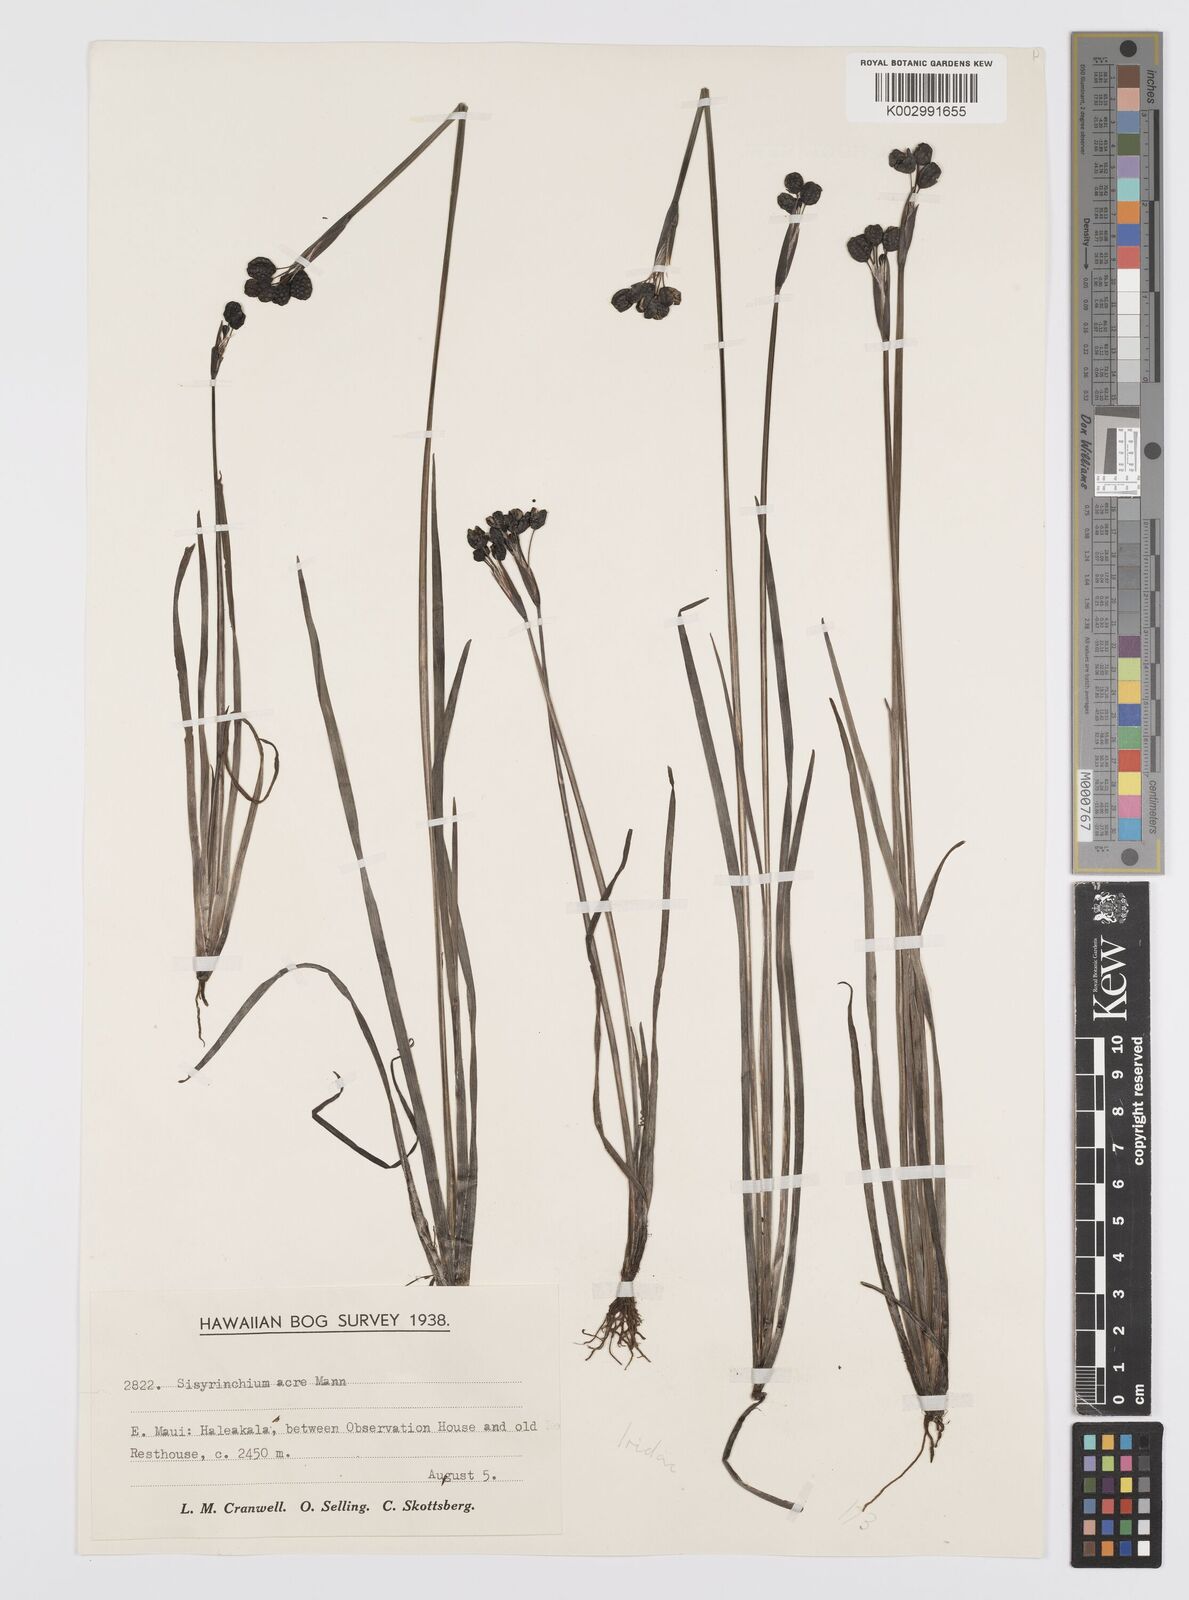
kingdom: Plantae
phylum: Tracheophyta
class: Liliopsida
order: Asparagales
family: Iridaceae
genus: Sisyrinchium
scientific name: Sisyrinchium acre
